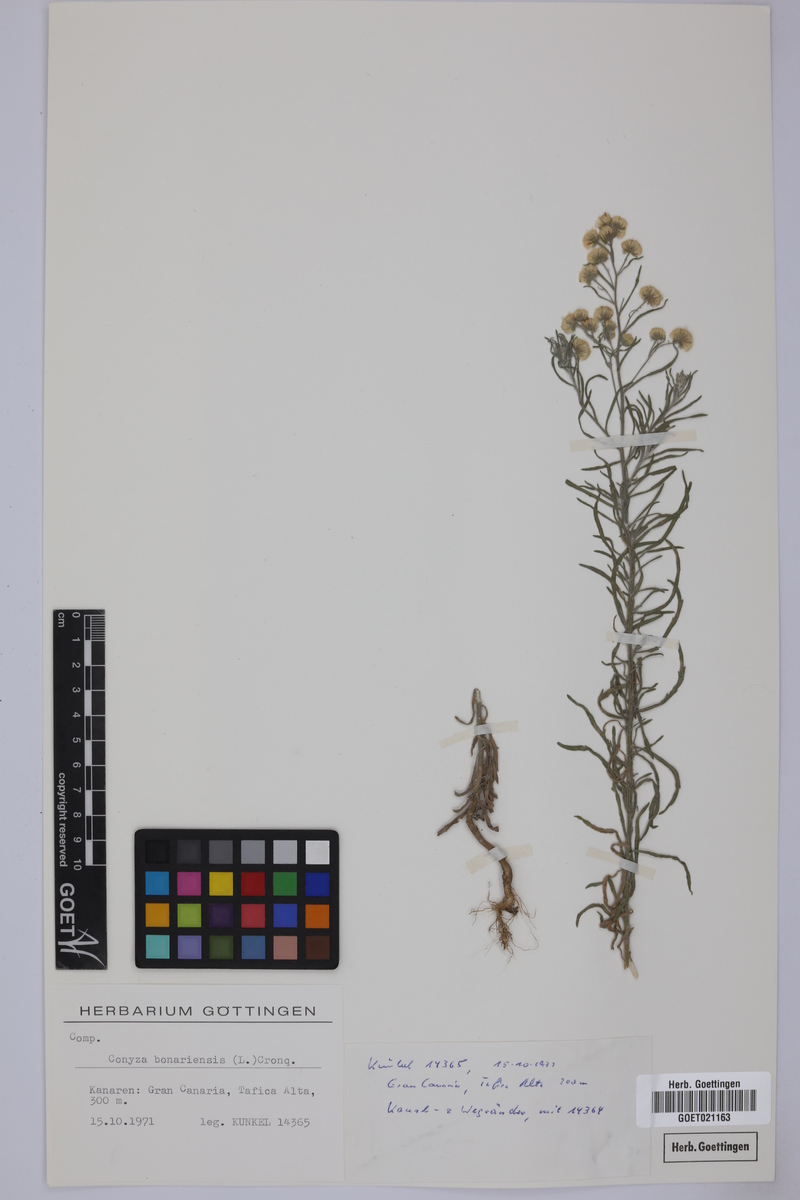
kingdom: Plantae
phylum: Tracheophyta
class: Magnoliopsida
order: Asterales
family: Asteraceae
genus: Erigeron
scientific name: Erigeron bonariensis
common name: Argentine fleabane
